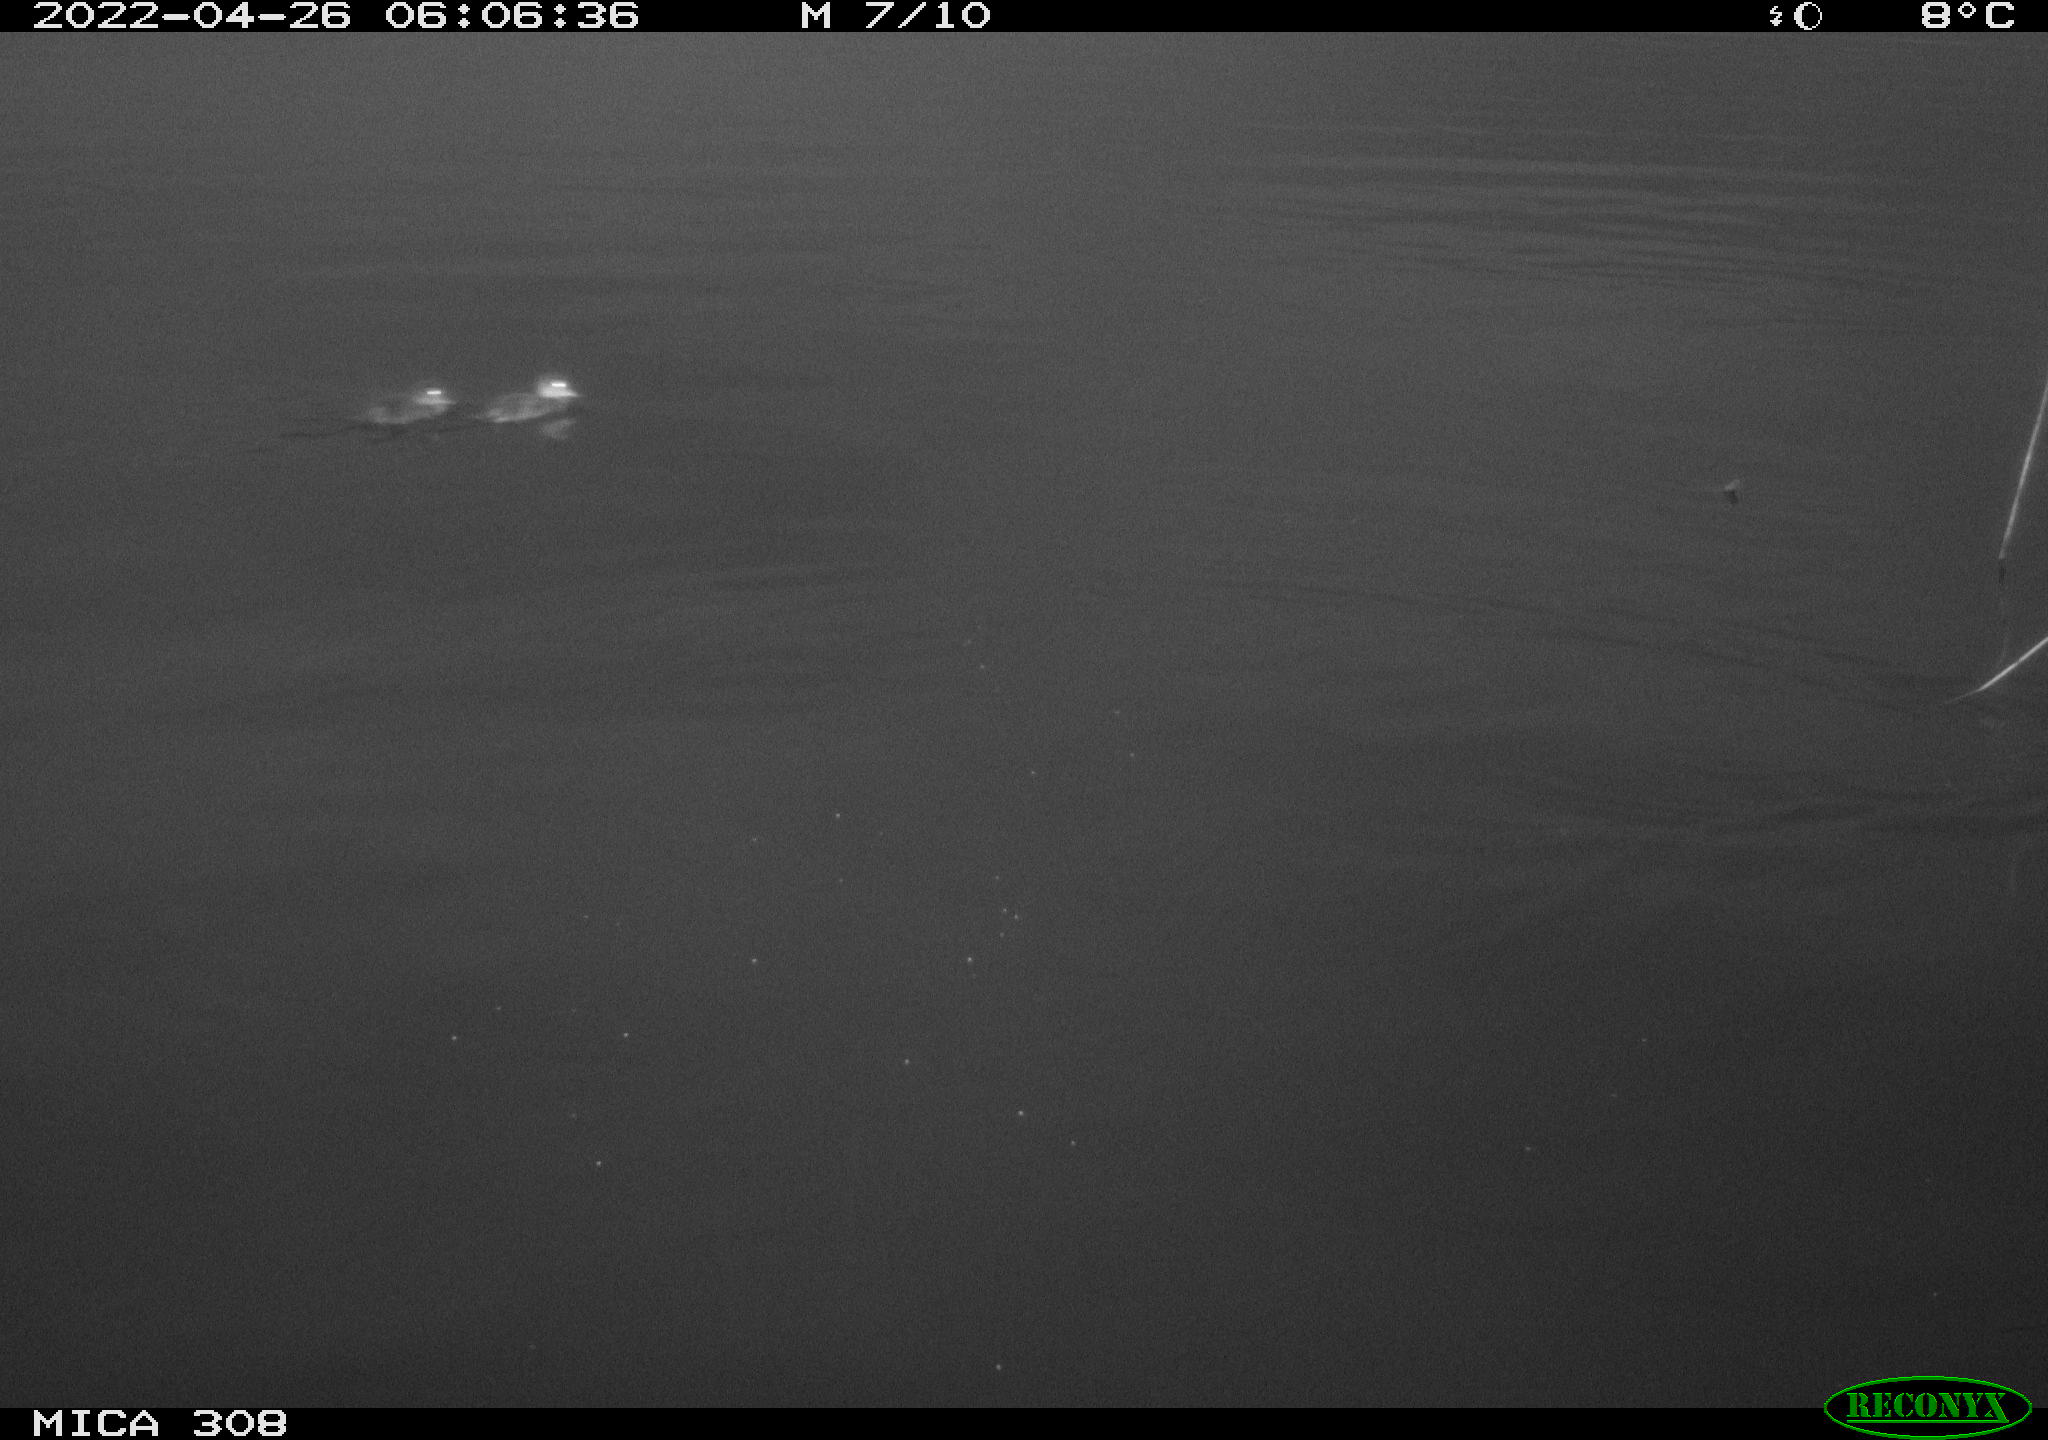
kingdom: Animalia
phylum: Chordata
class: Aves
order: Anseriformes
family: Anatidae
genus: Anas
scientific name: Anas platyrhynchos
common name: Mallard
